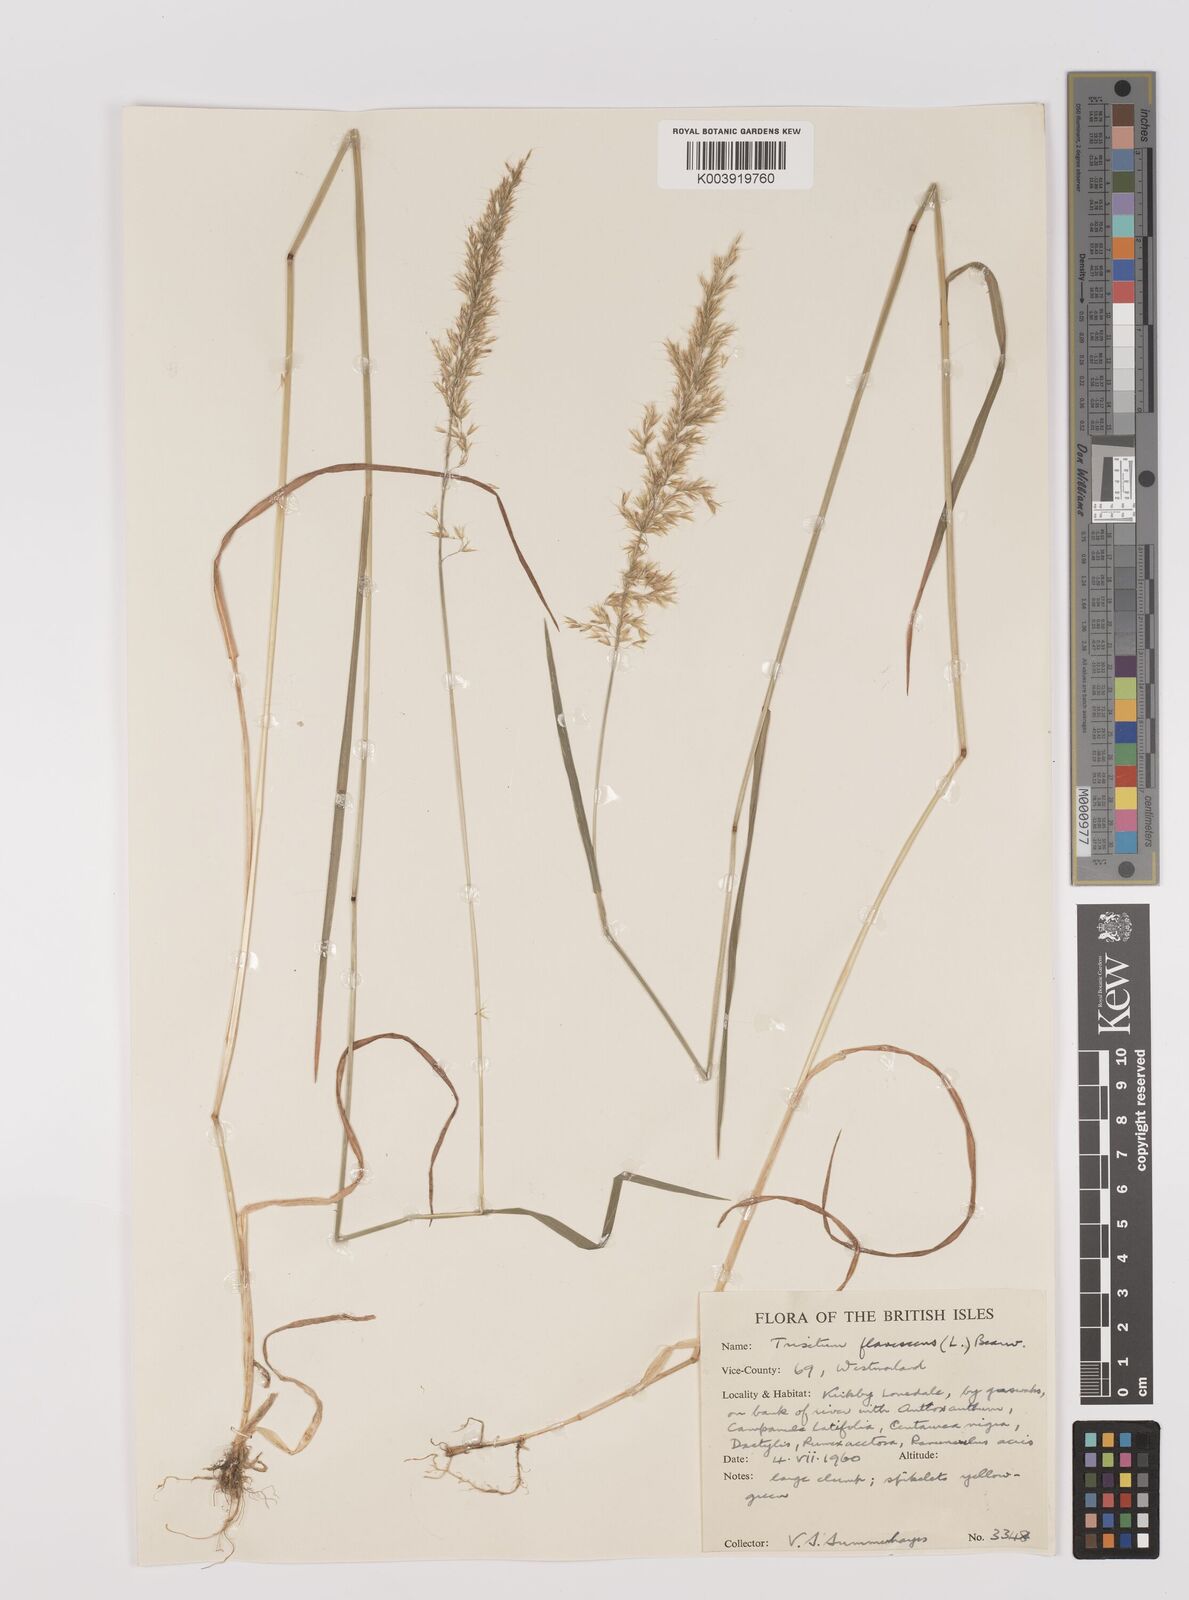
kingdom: Plantae
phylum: Tracheophyta
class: Liliopsida
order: Poales
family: Poaceae
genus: Trisetum
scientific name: Trisetum flavescens
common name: Yellow oat-grass
